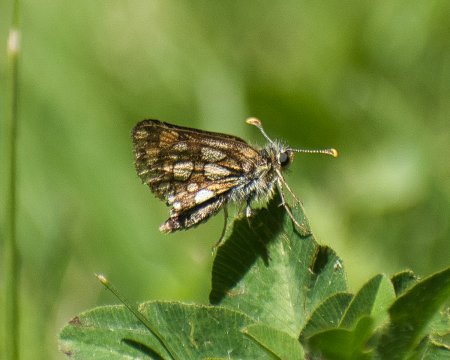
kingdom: Animalia
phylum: Arthropoda
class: Insecta
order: Lepidoptera
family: Hesperiidae
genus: Carterocephalus
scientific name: Carterocephalus skada
